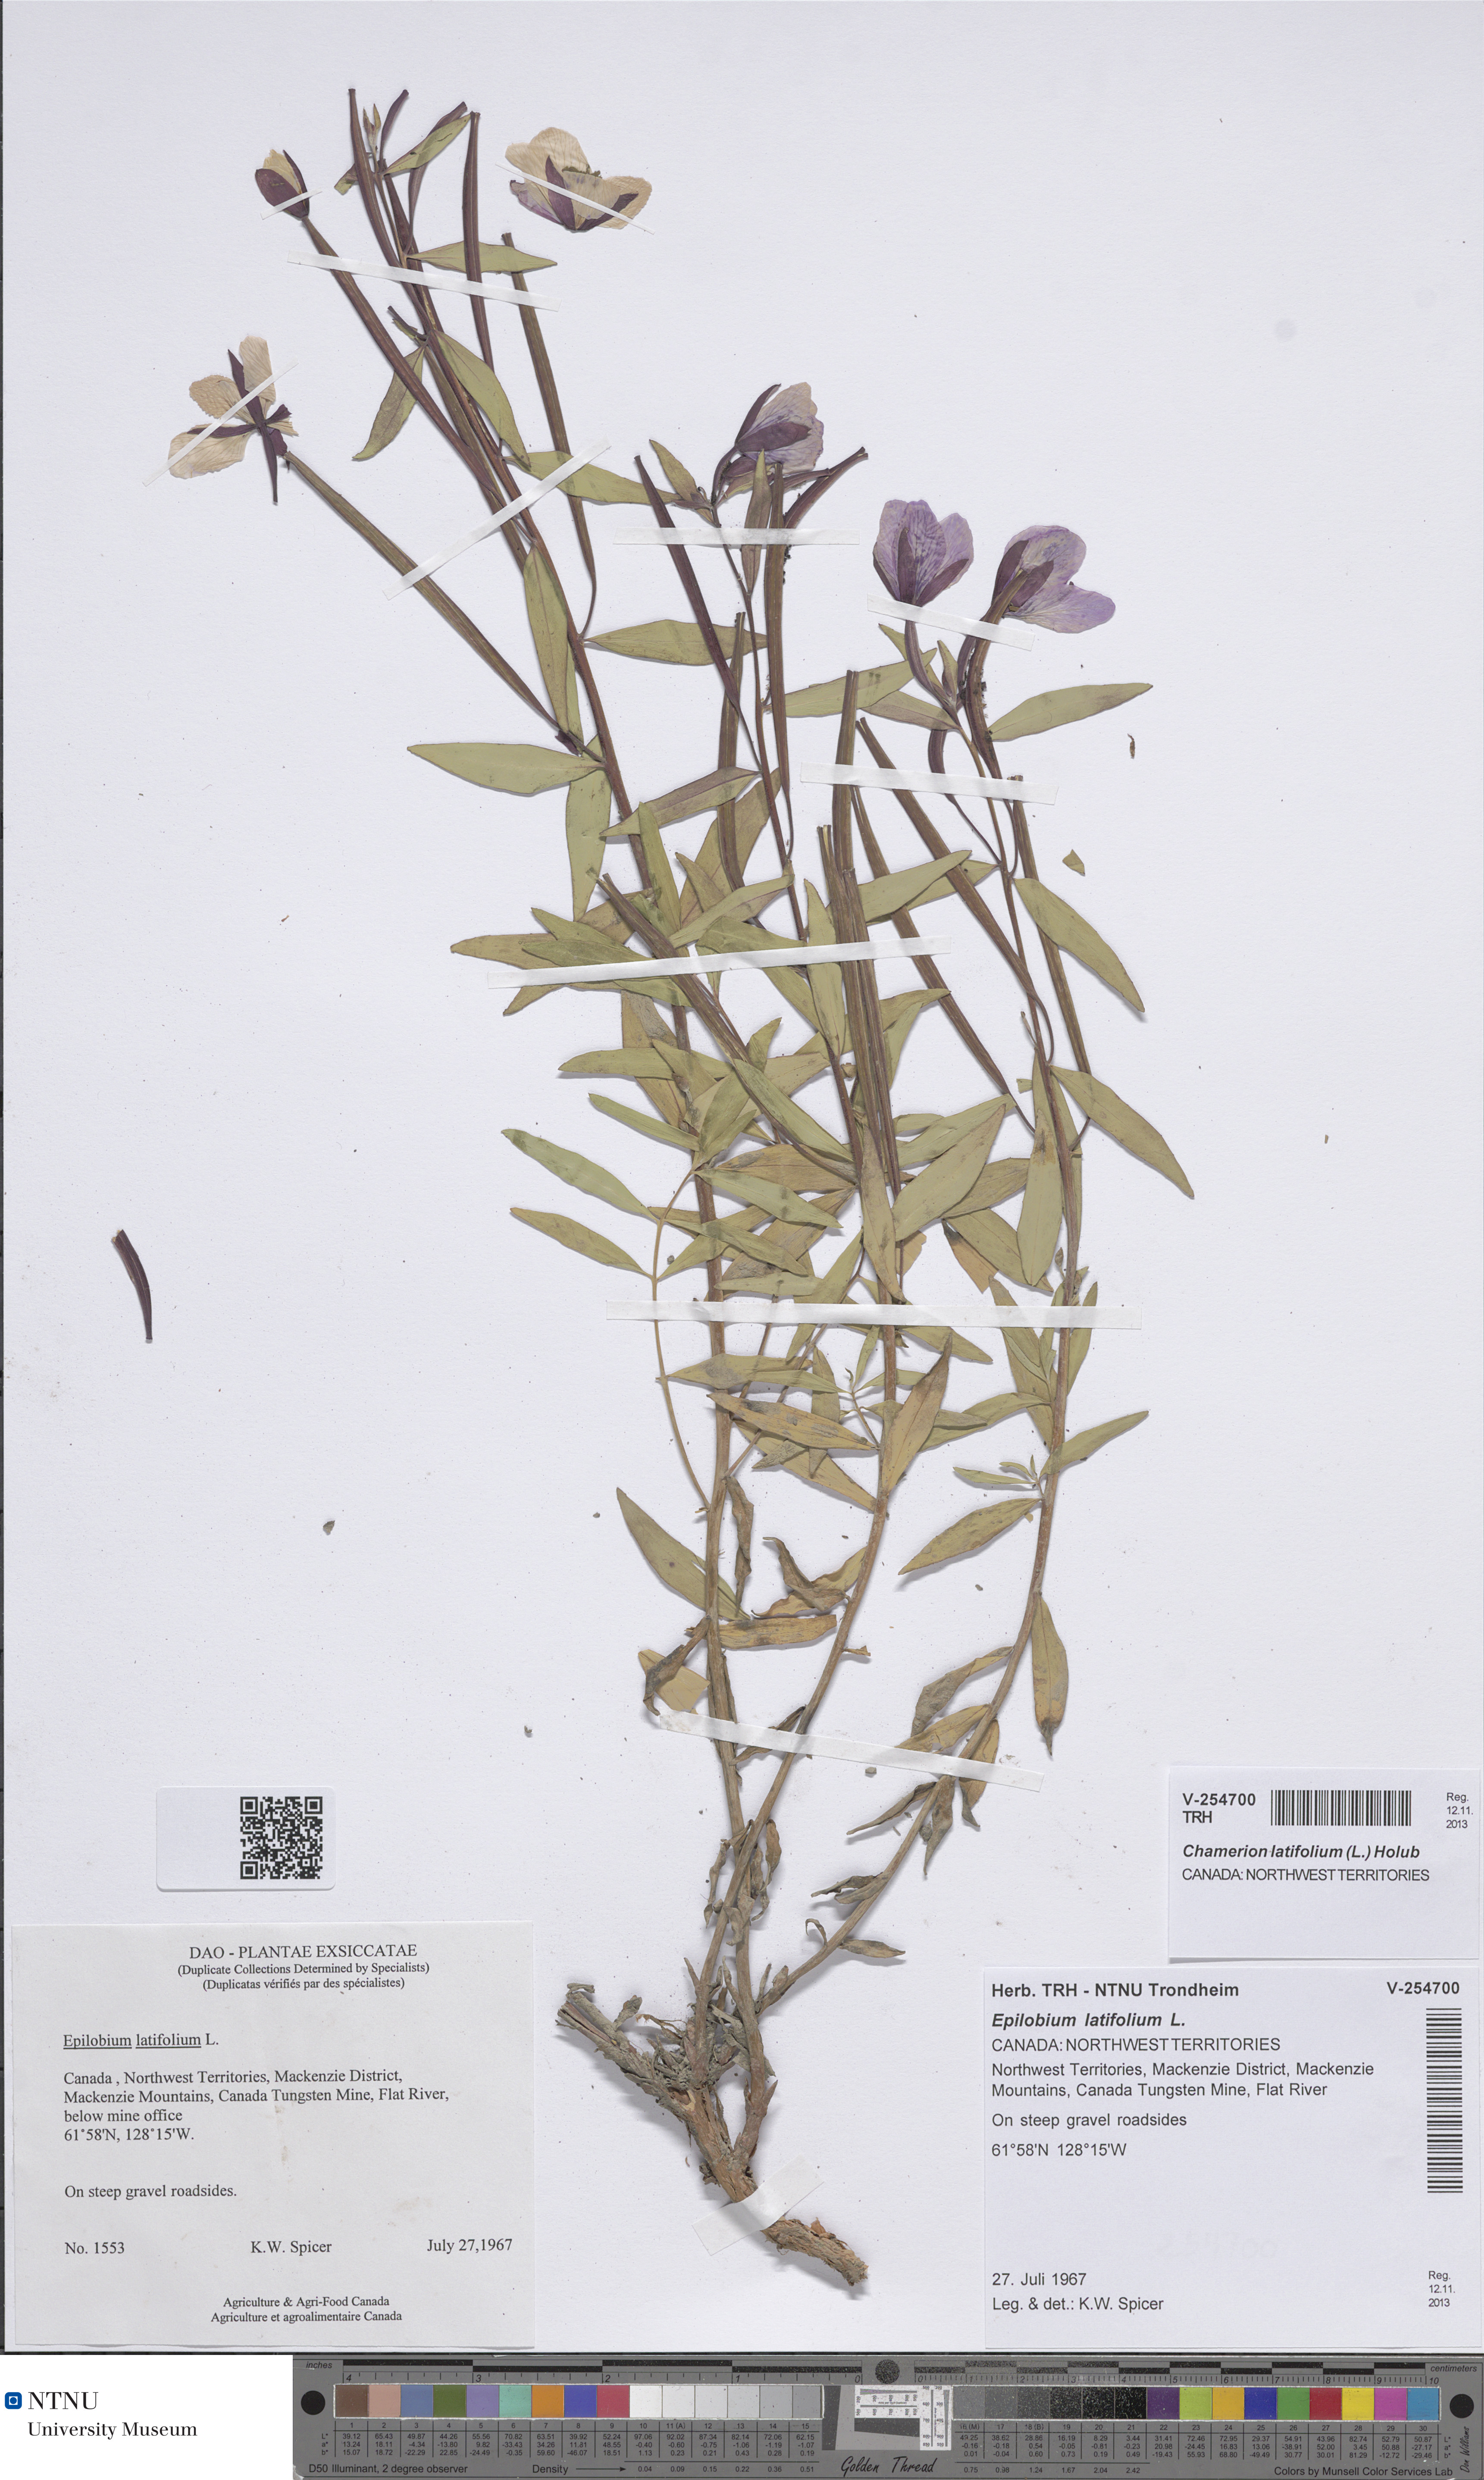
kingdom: Plantae
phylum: Tracheophyta
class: Magnoliopsida
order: Myrtales
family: Onagraceae
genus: Chamaenerion
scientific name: Chamaenerion latifolium
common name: Dwarf fireweed
